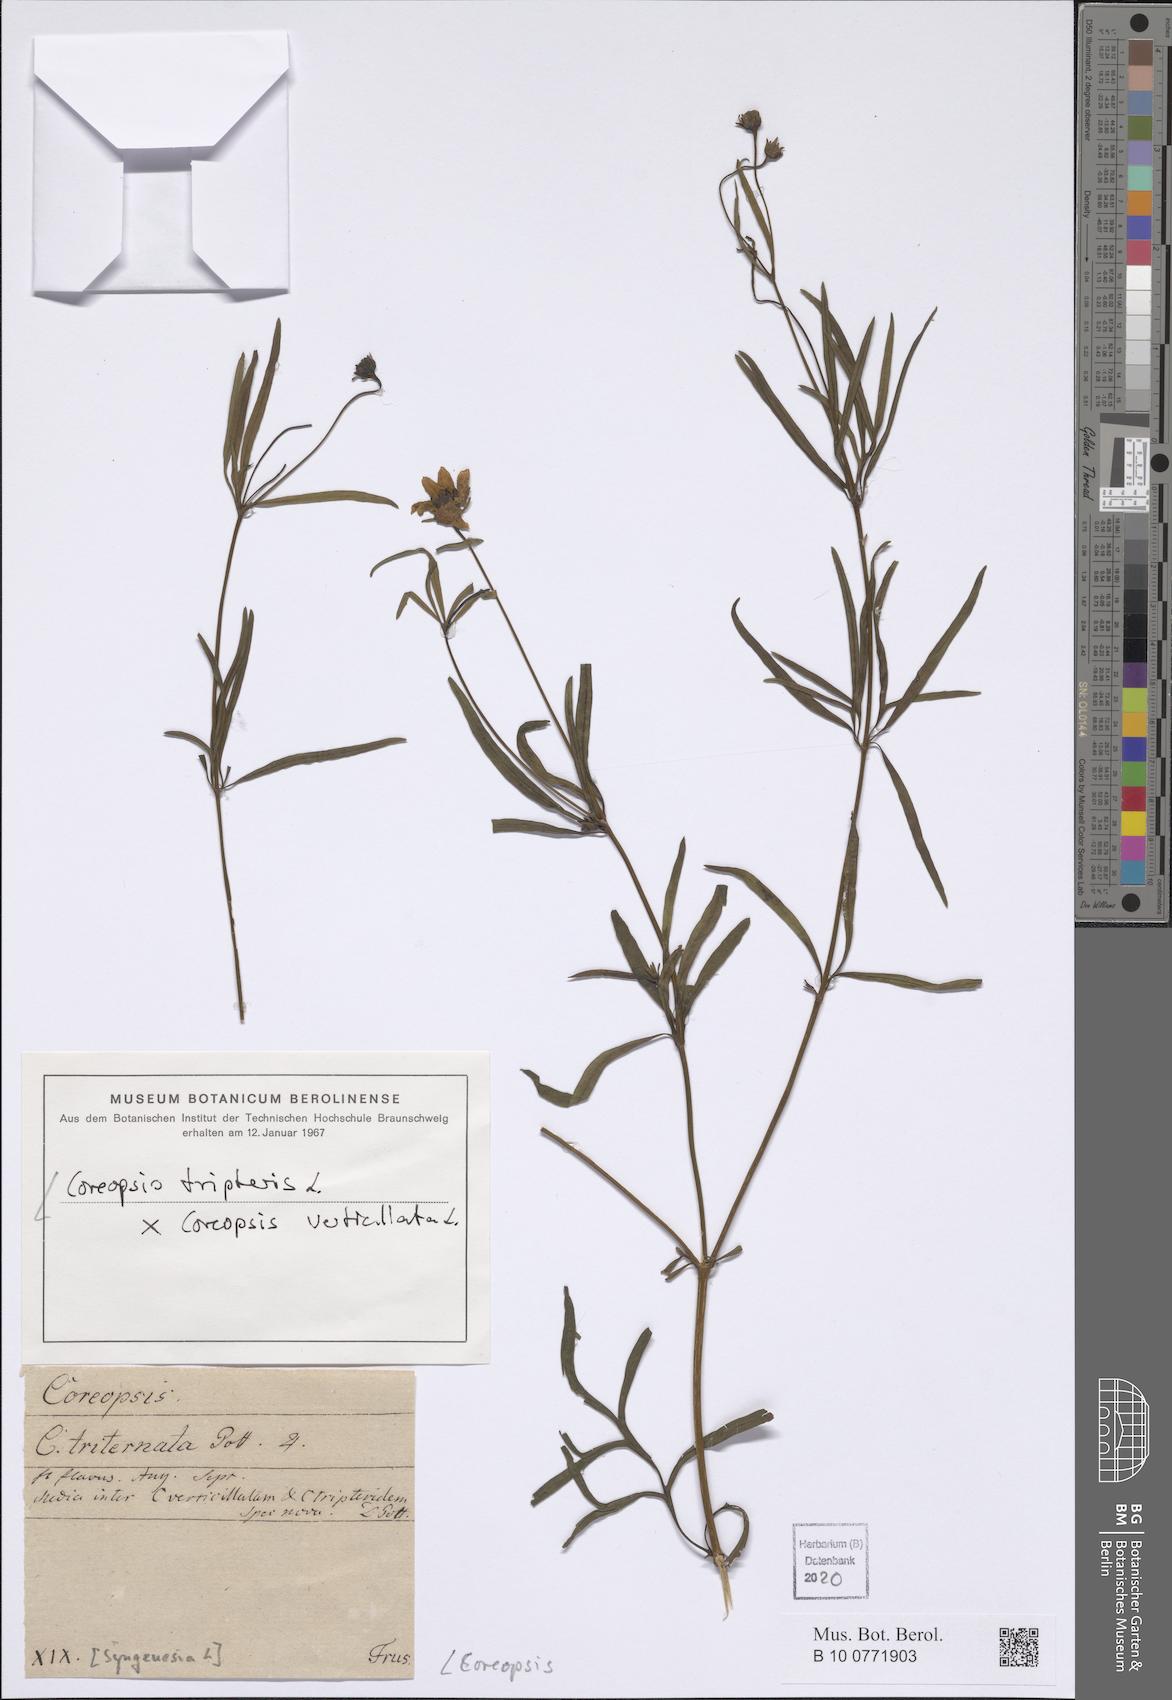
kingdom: Plantae
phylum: Tracheophyta
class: Magnoliopsida
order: Asterales
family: Asteraceae
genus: Coreopsis
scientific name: Coreopsis
